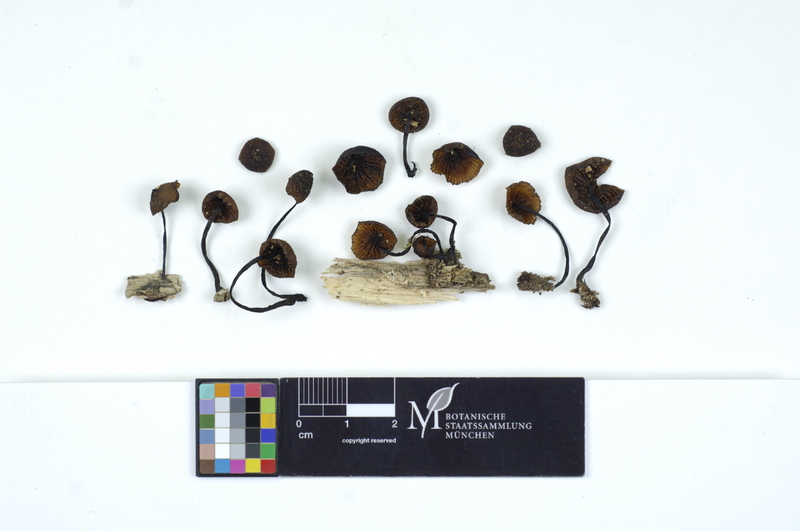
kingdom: Fungi
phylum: Basidiomycota
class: Agaricomycetes
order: Agaricales
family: Mycenaceae
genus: Mycena
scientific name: Mycena haematopus
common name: Burgundydrop bonnet
